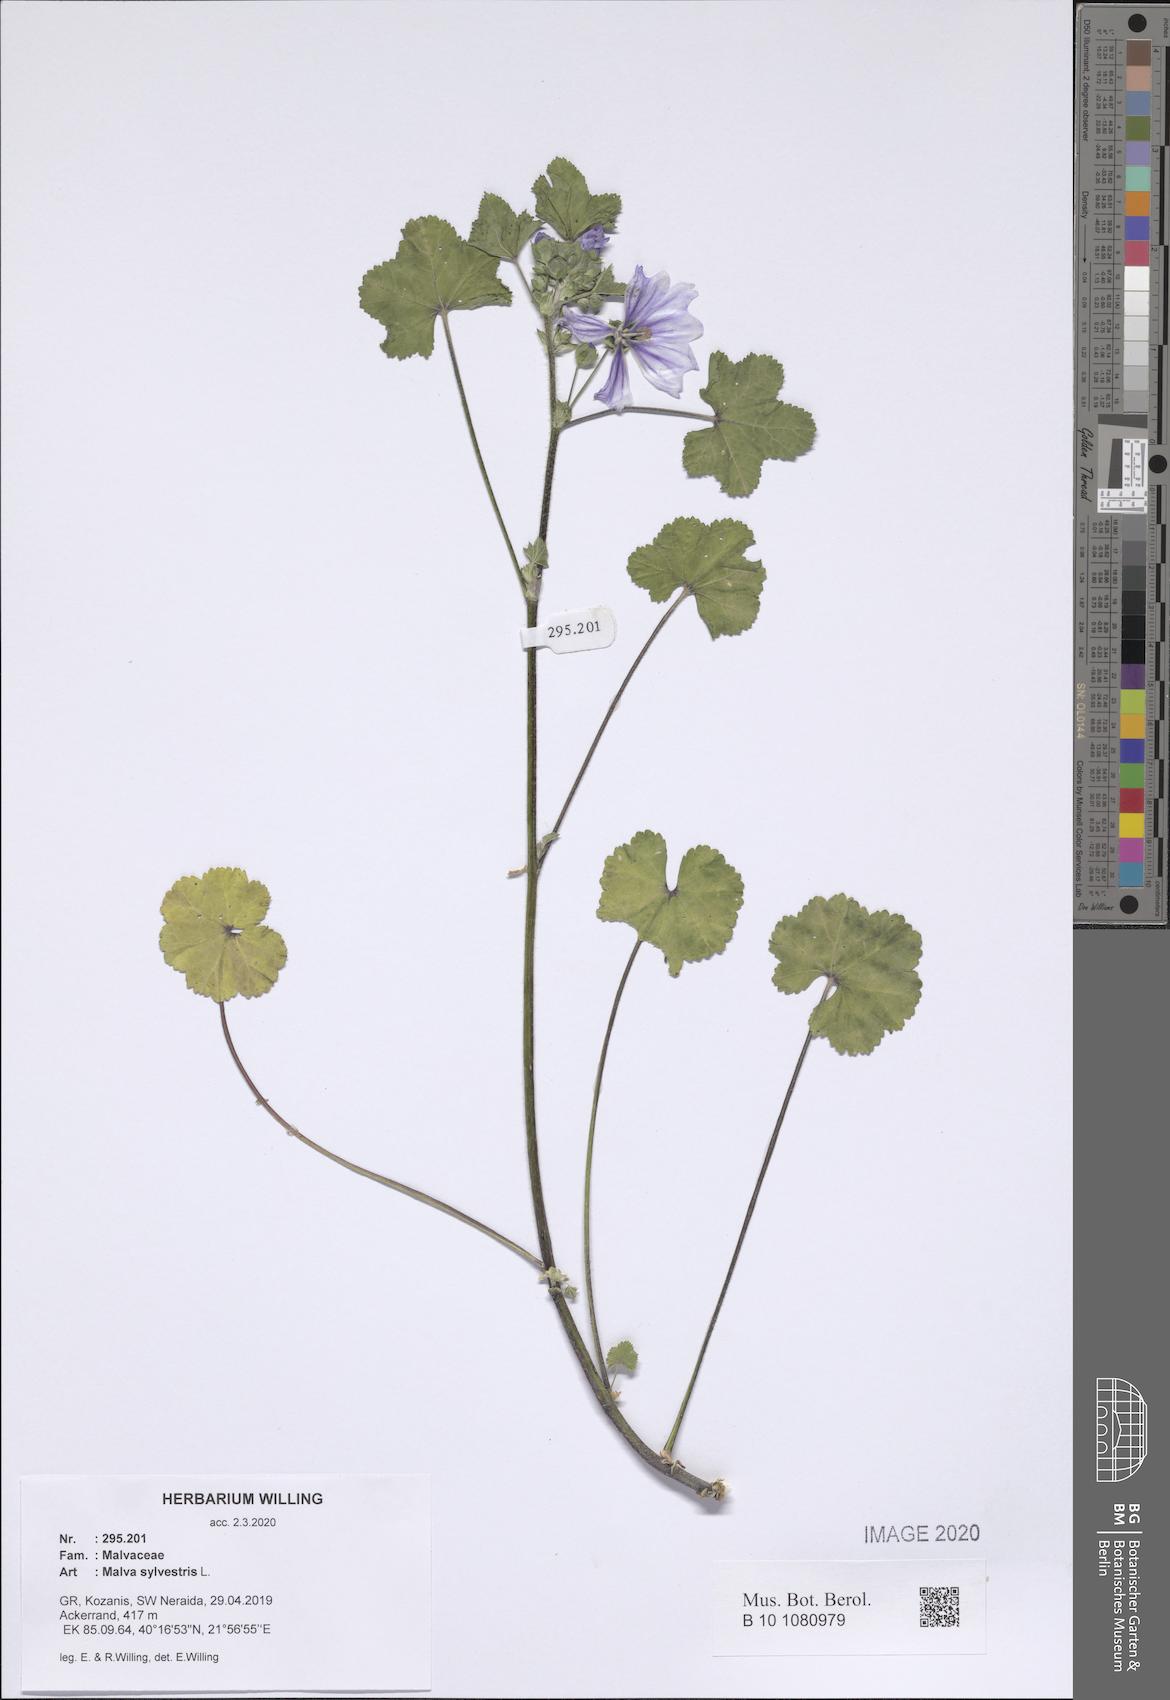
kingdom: Plantae
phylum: Tracheophyta
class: Magnoliopsida
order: Malvales
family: Malvaceae
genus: Malva
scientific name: Malva sylvestris
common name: Common mallow
